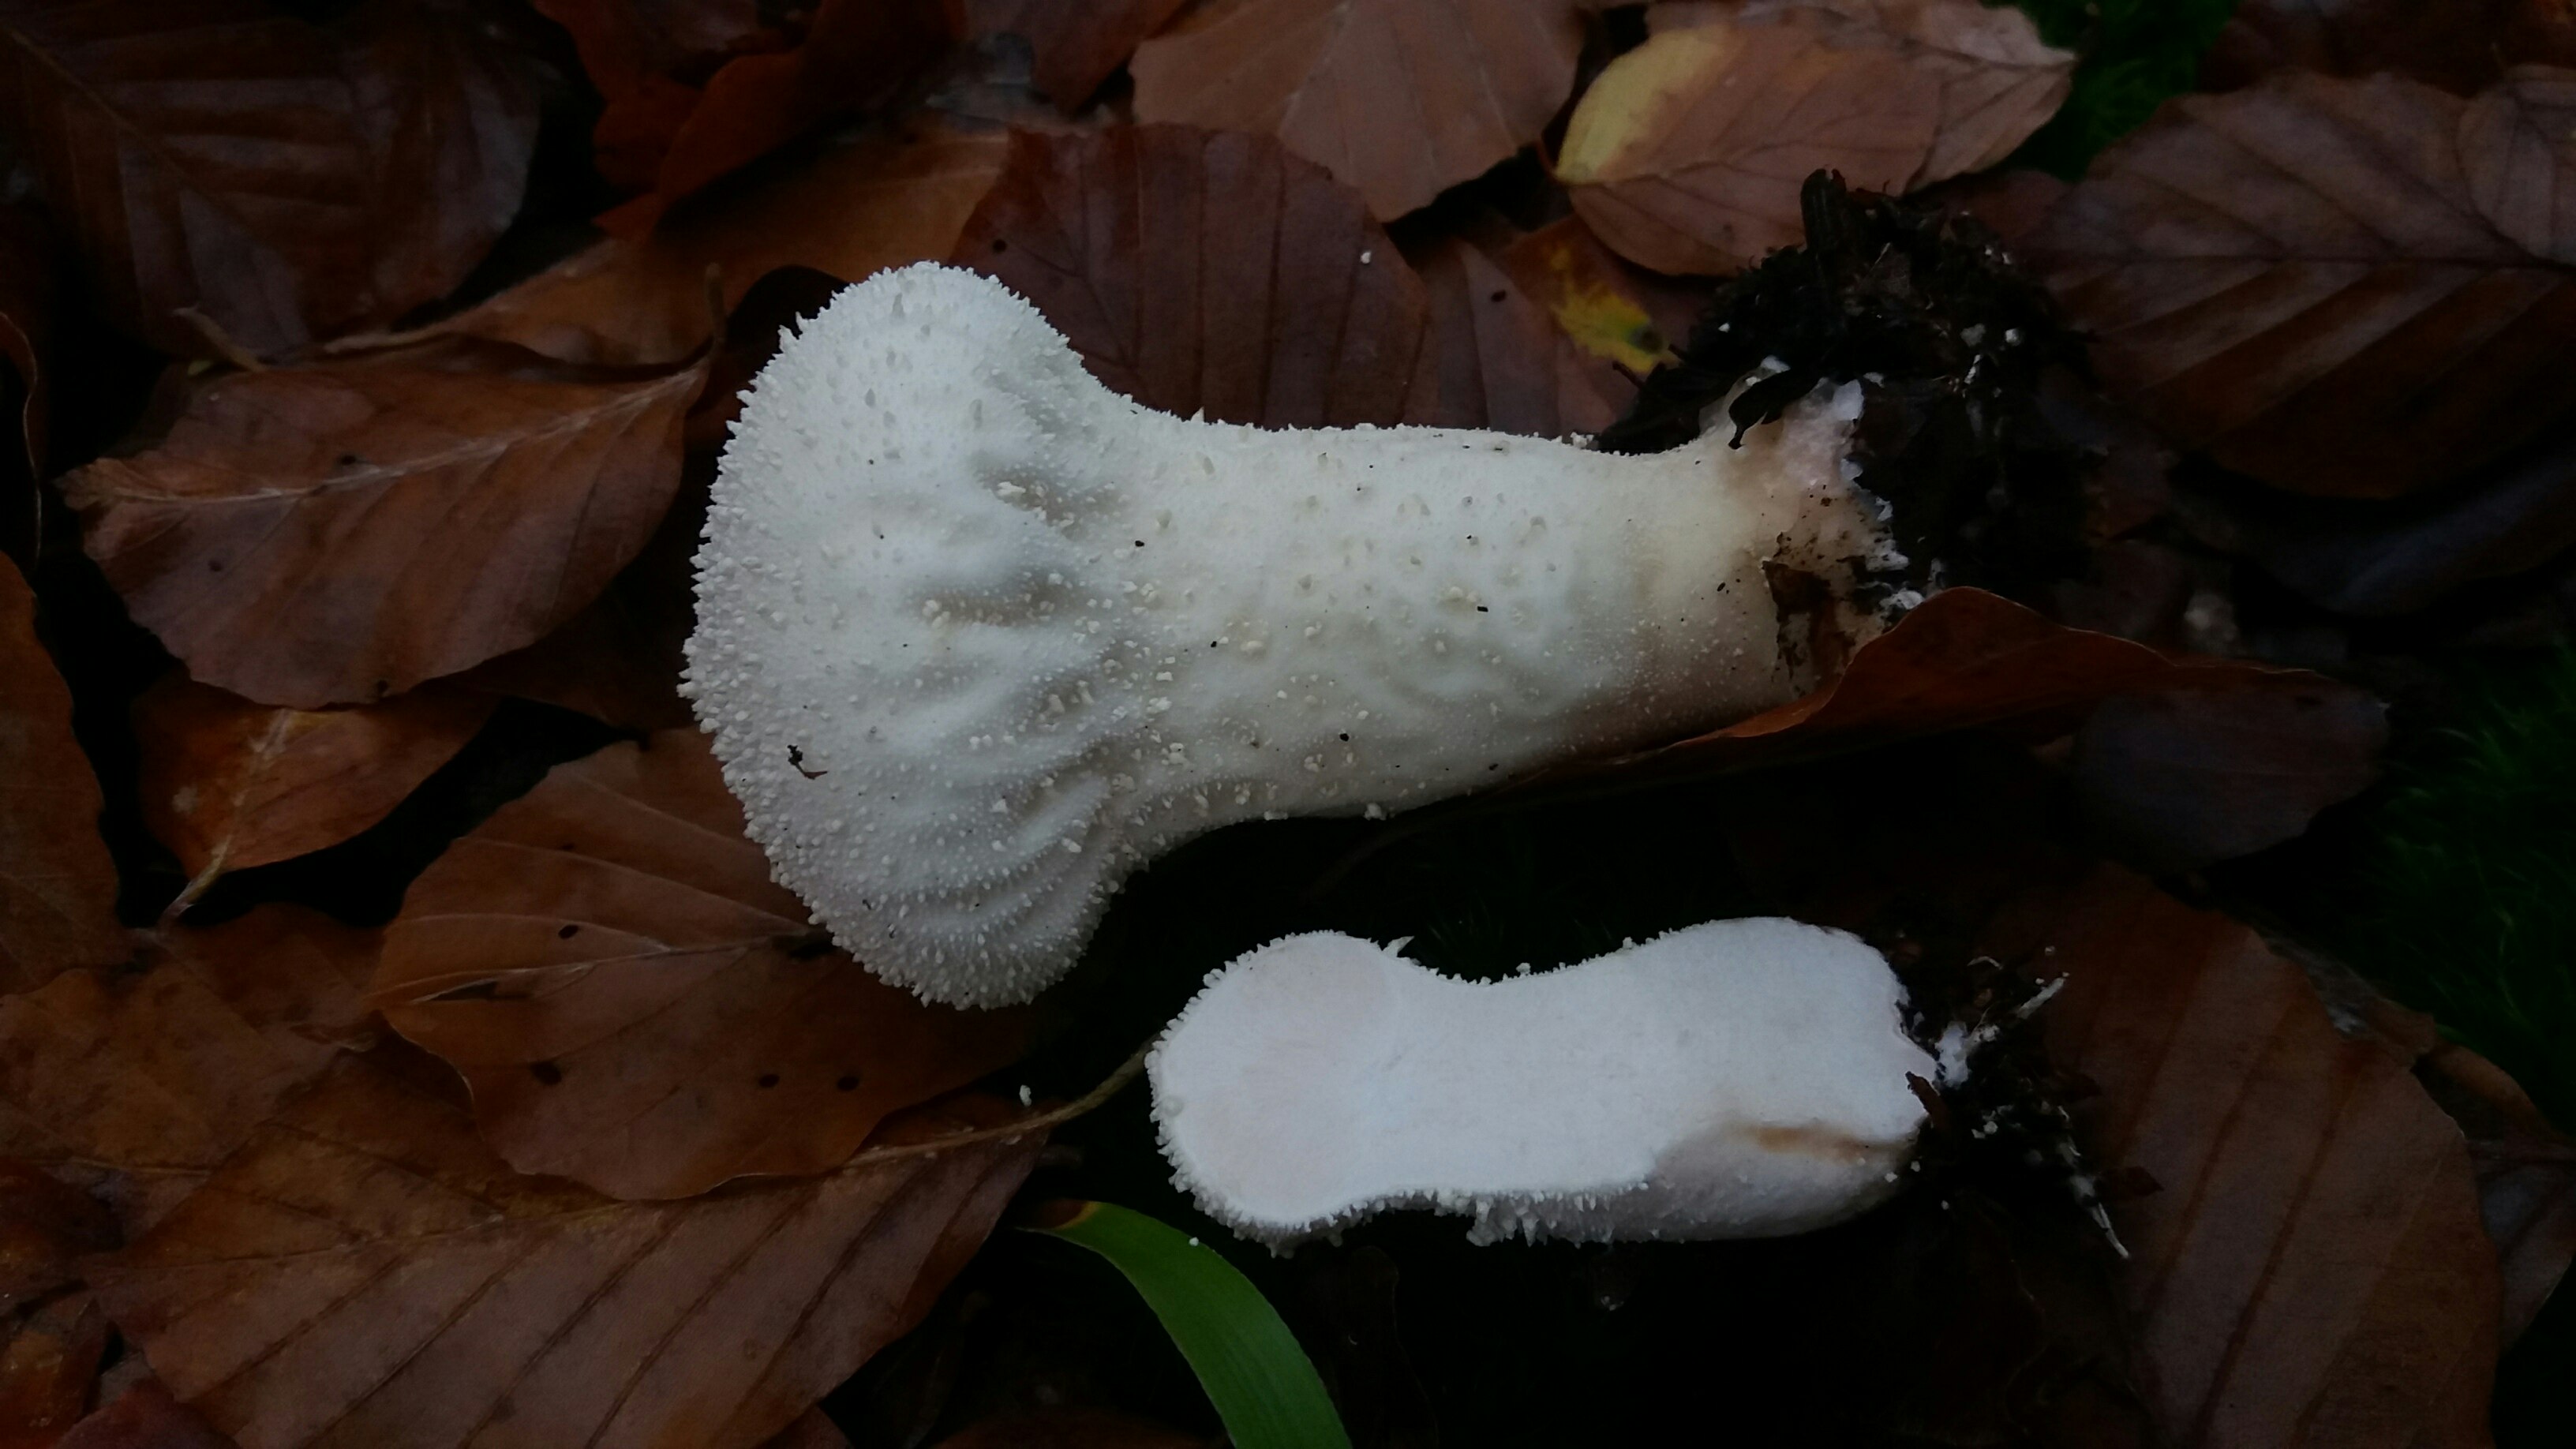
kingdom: Fungi
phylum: Basidiomycota
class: Agaricomycetes
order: Agaricales
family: Lycoperdaceae
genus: Lycoperdon
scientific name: Lycoperdon perlatum
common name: krystal-støvbold
